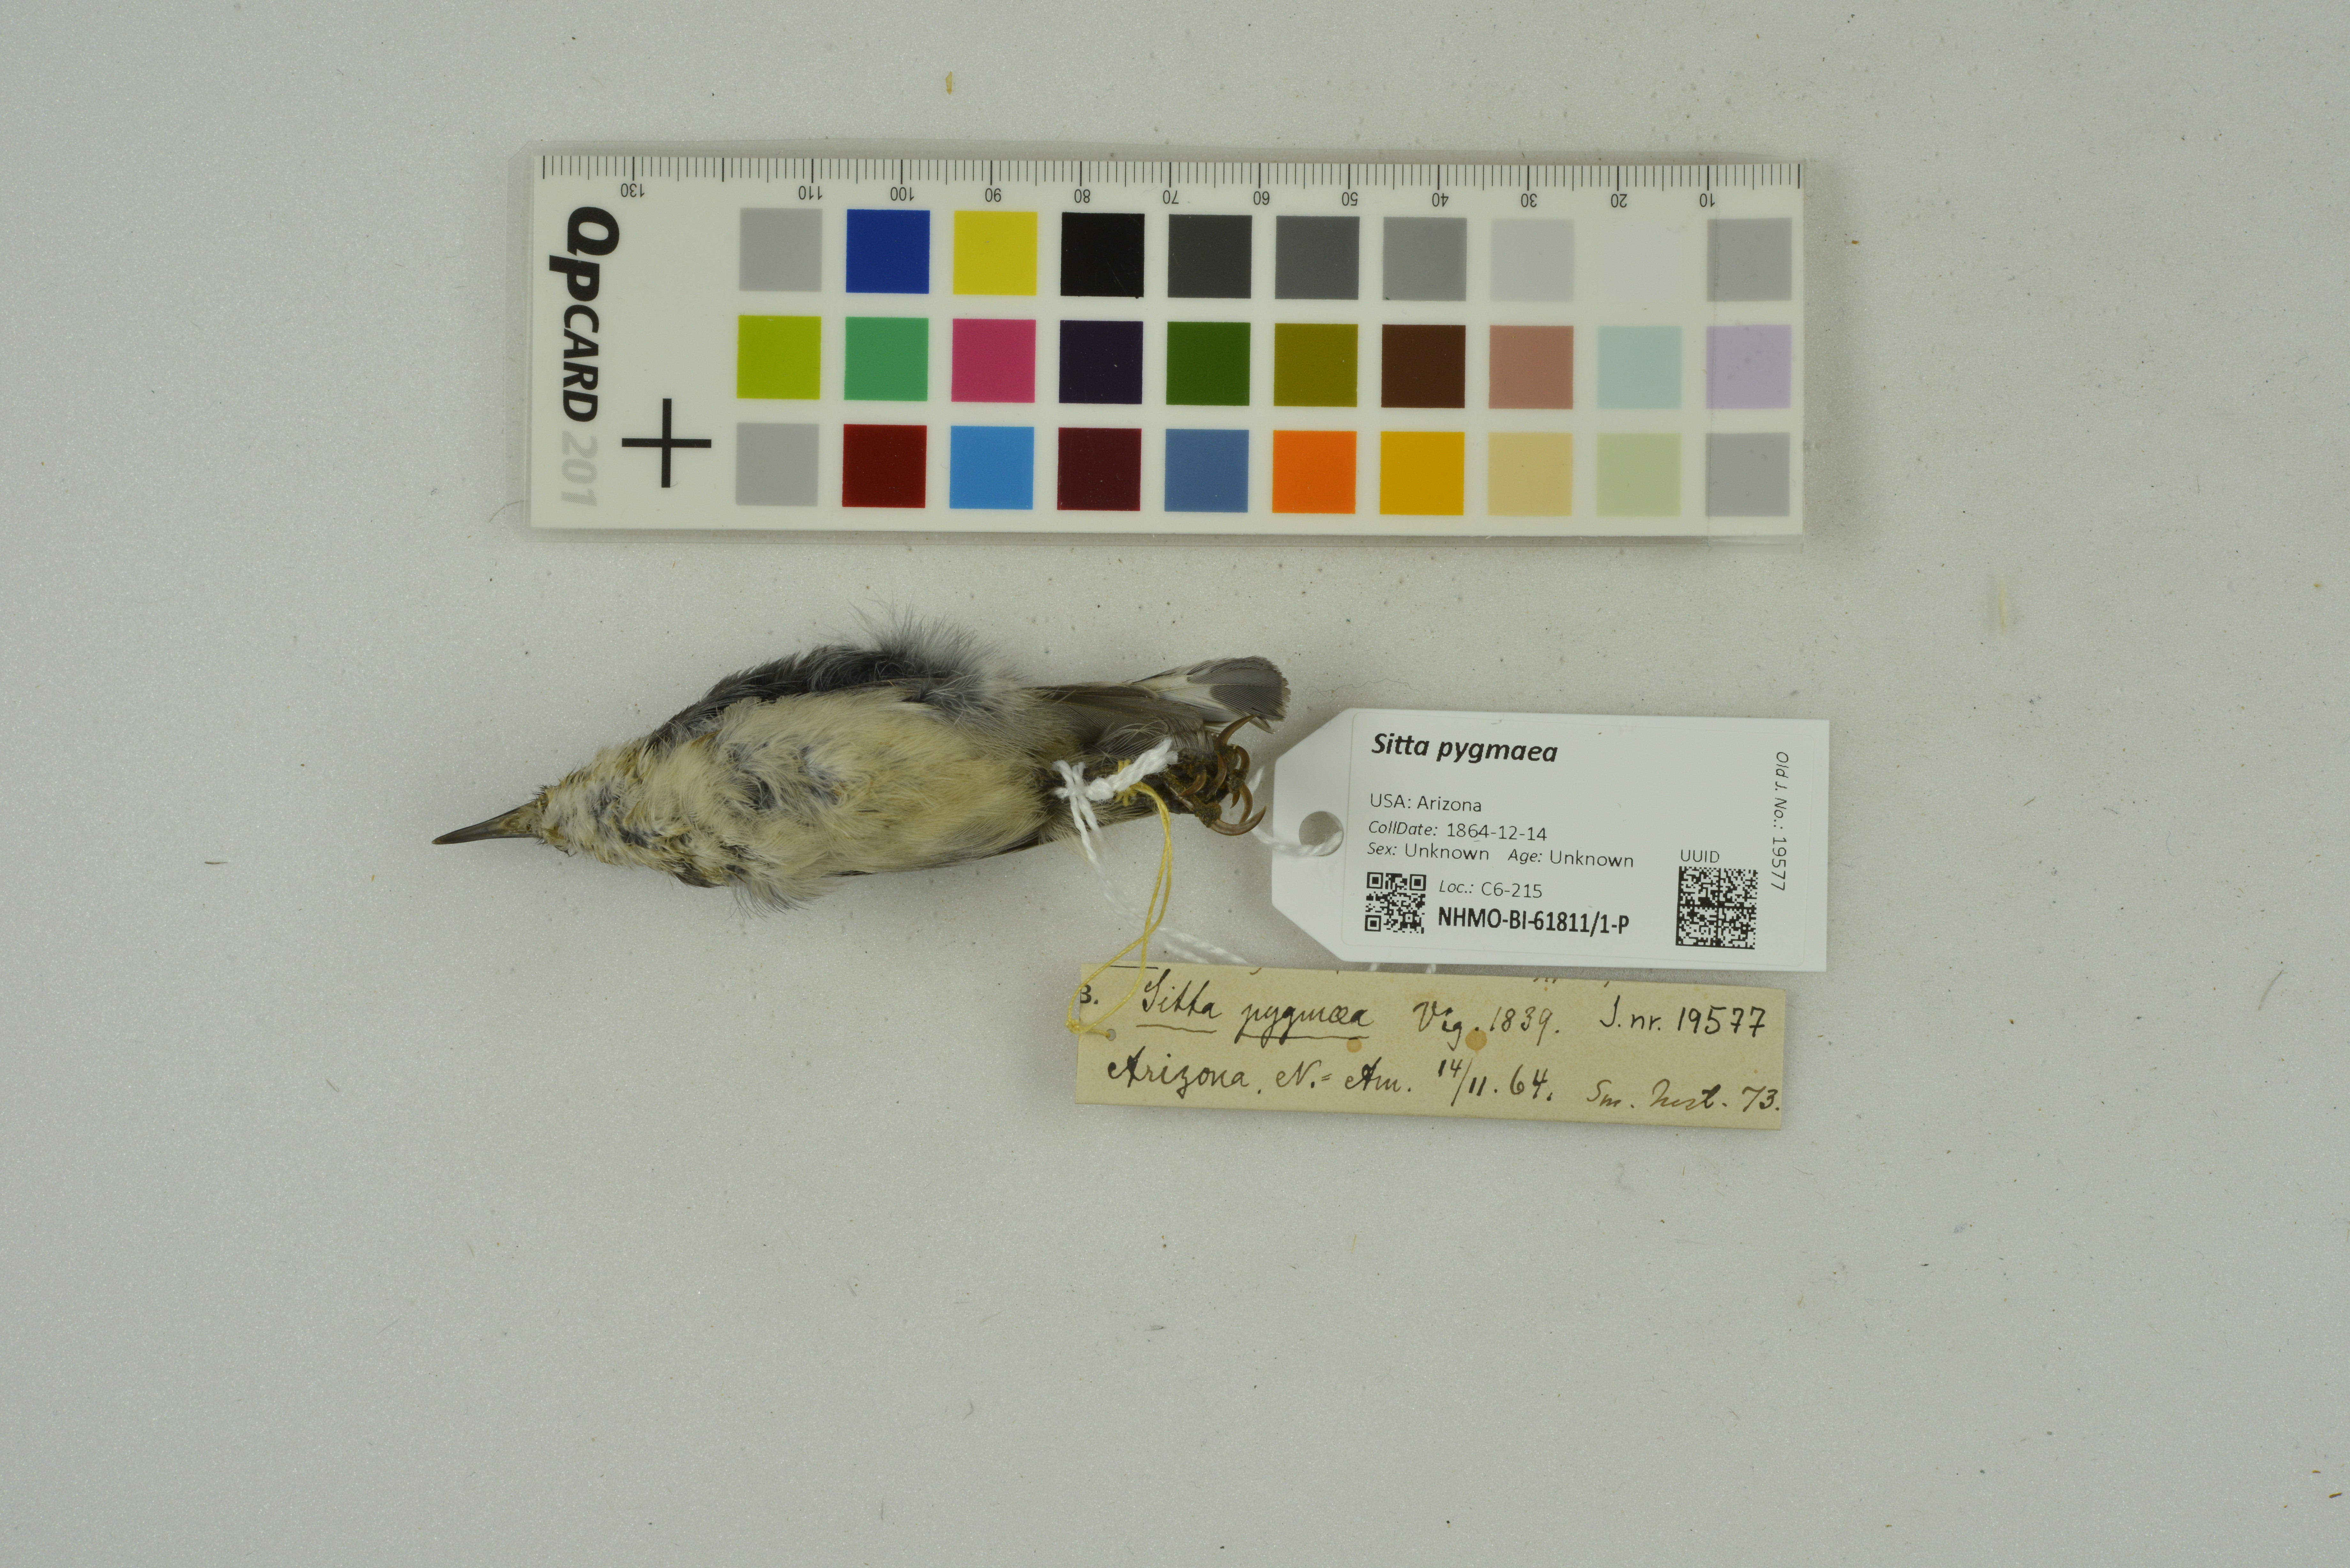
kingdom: Animalia
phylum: Chordata
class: Aves
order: Passeriformes
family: Sittidae
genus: Sitta
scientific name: Sitta pygmaea
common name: Pygmy nuthatch
